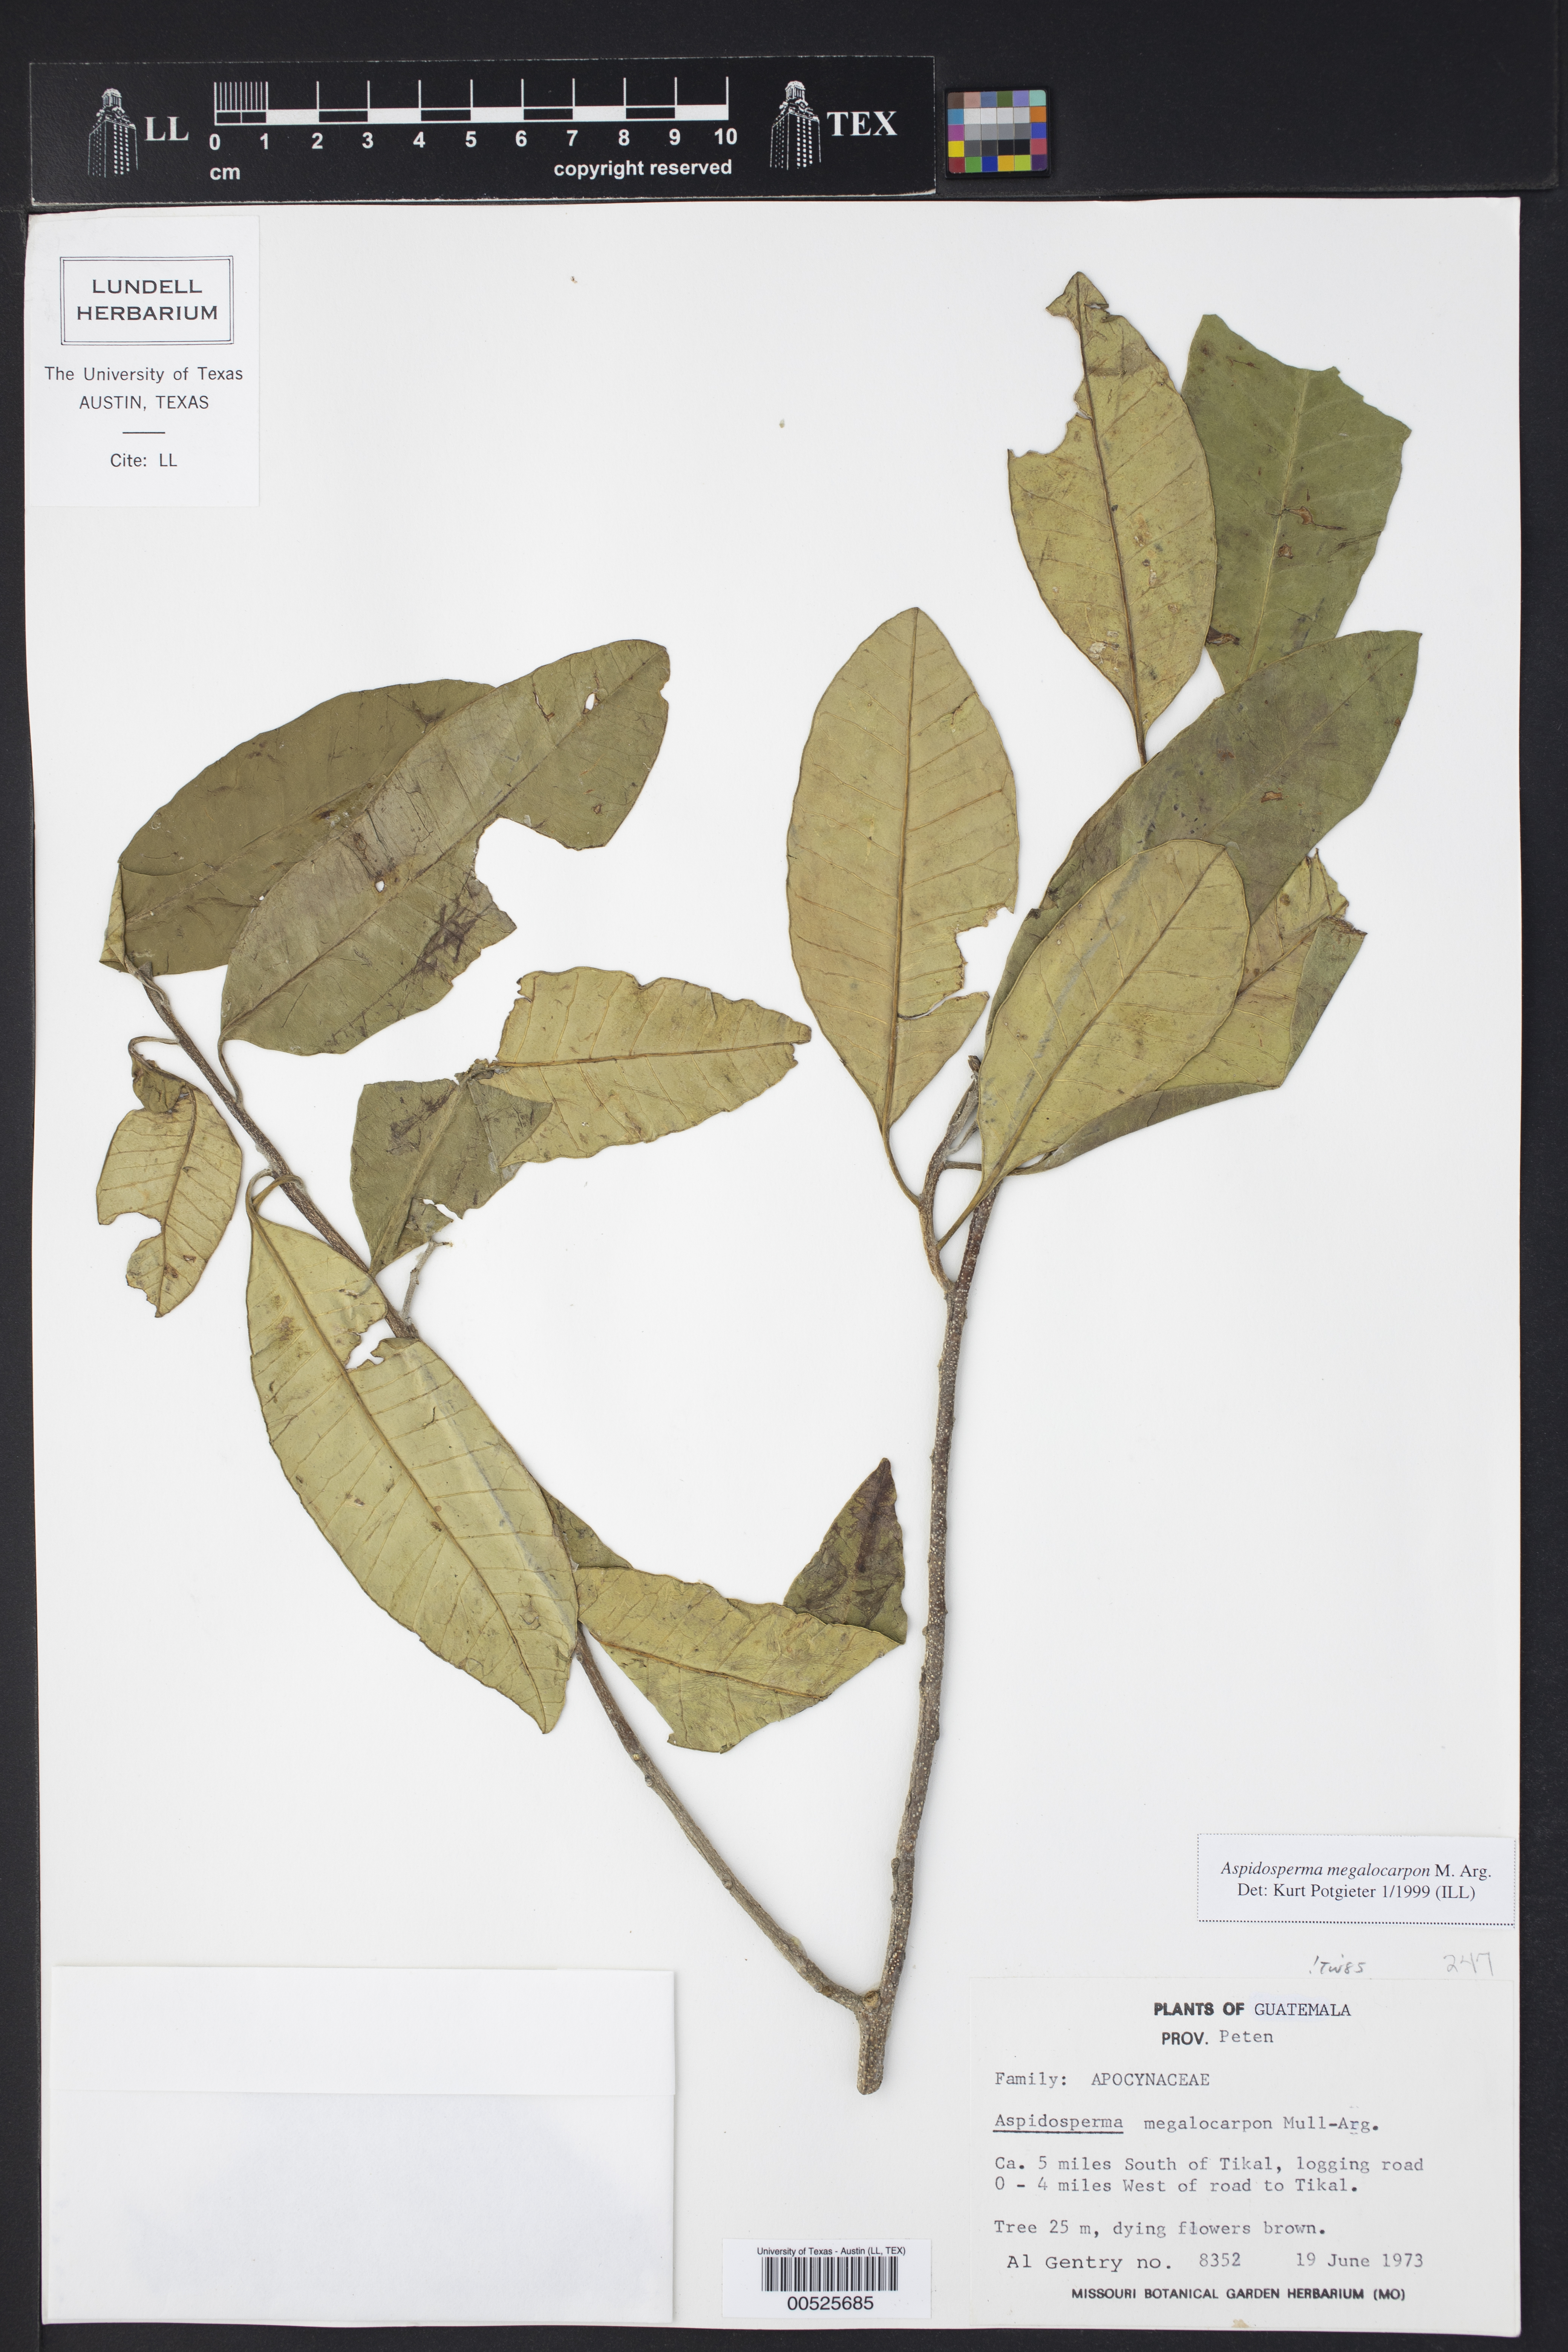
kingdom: Plantae
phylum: Tracheophyta
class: Magnoliopsida
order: Gentianales
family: Apocynaceae
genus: Aspidosperma
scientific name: Aspidosperma megalocarpon
